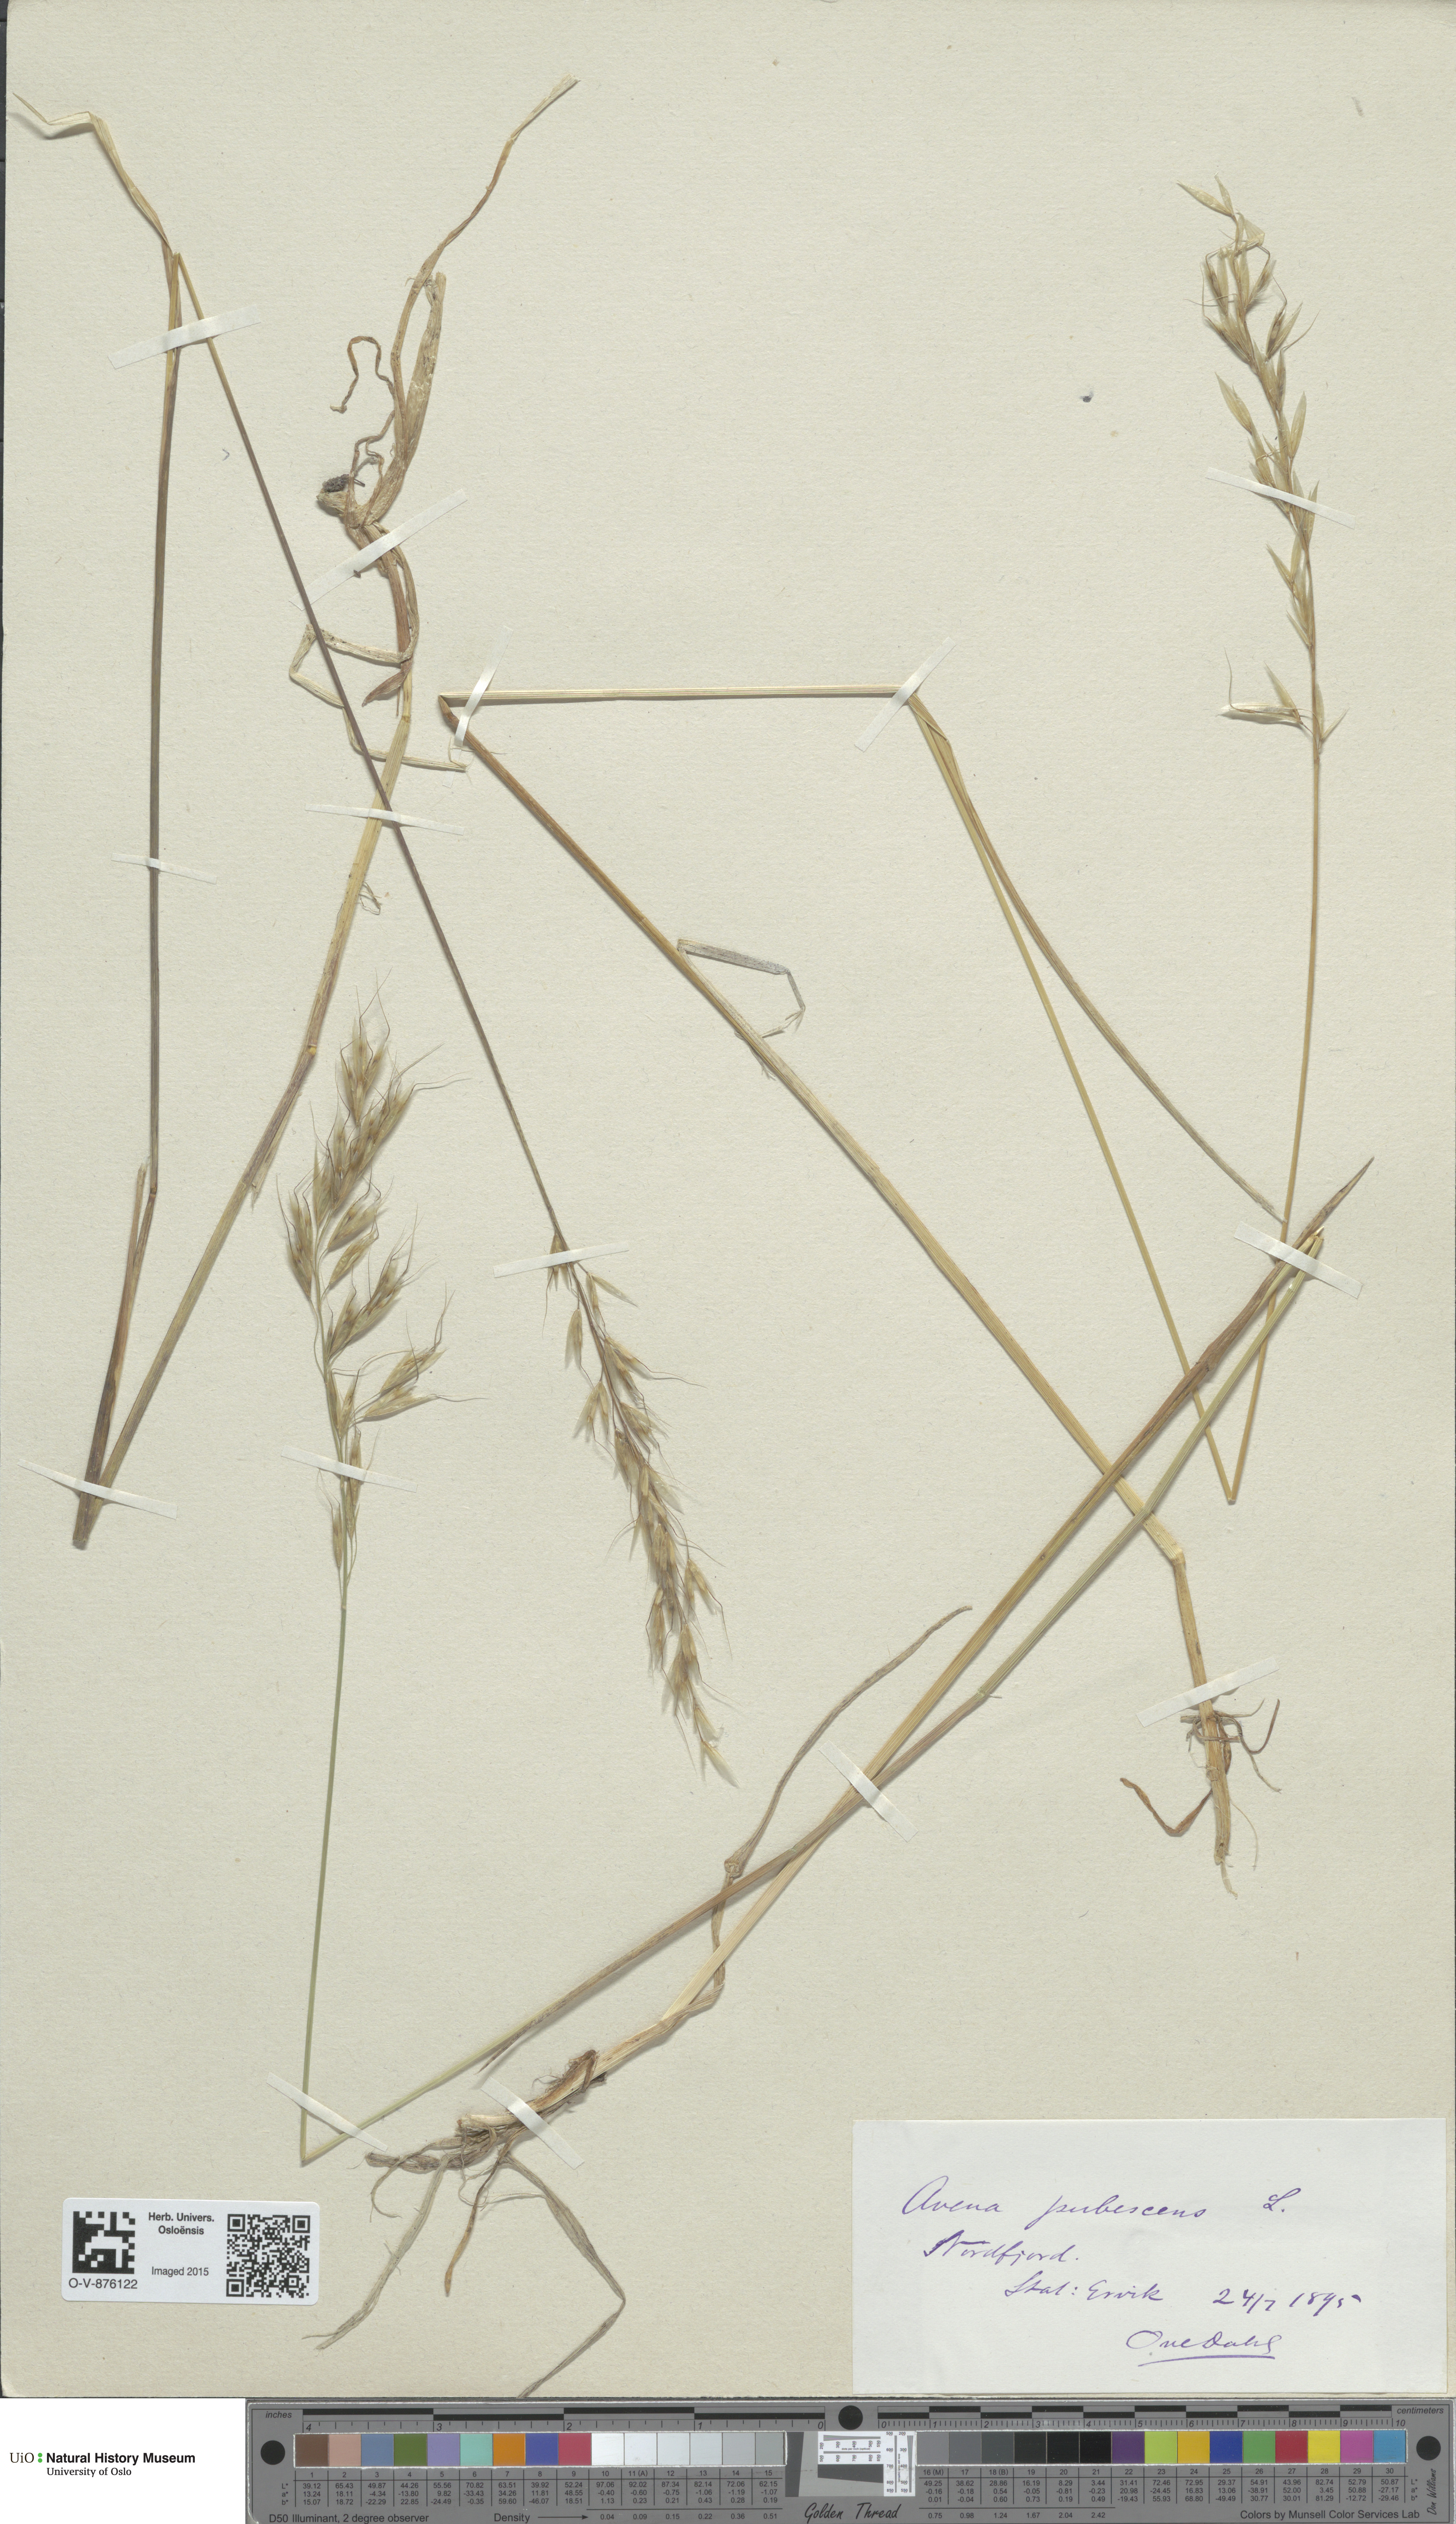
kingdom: Plantae
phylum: Tracheophyta
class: Liliopsida
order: Poales
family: Poaceae
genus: Avenula
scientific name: Avenula pubescens
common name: Downy alpine oatgrass
